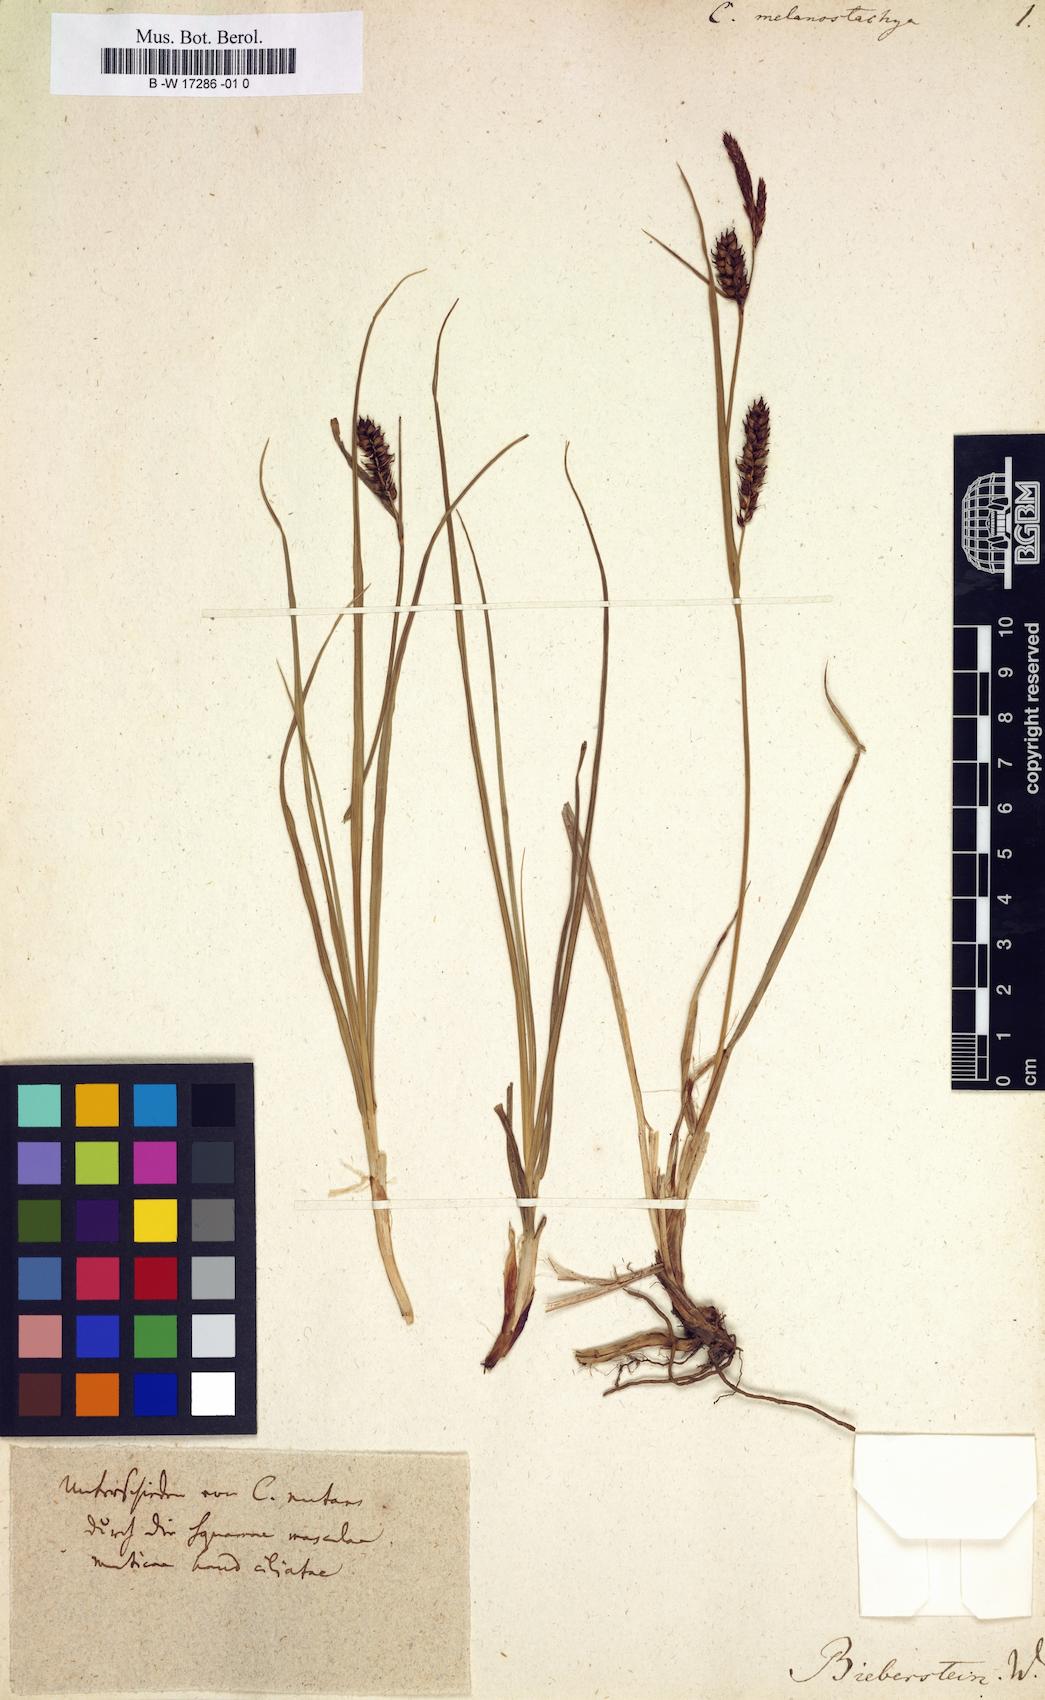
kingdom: Plantae
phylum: Tracheophyta
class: Liliopsida
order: Poales
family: Cyperaceae
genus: Carex
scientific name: Carex melanostachya
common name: Black-spiked sedge
